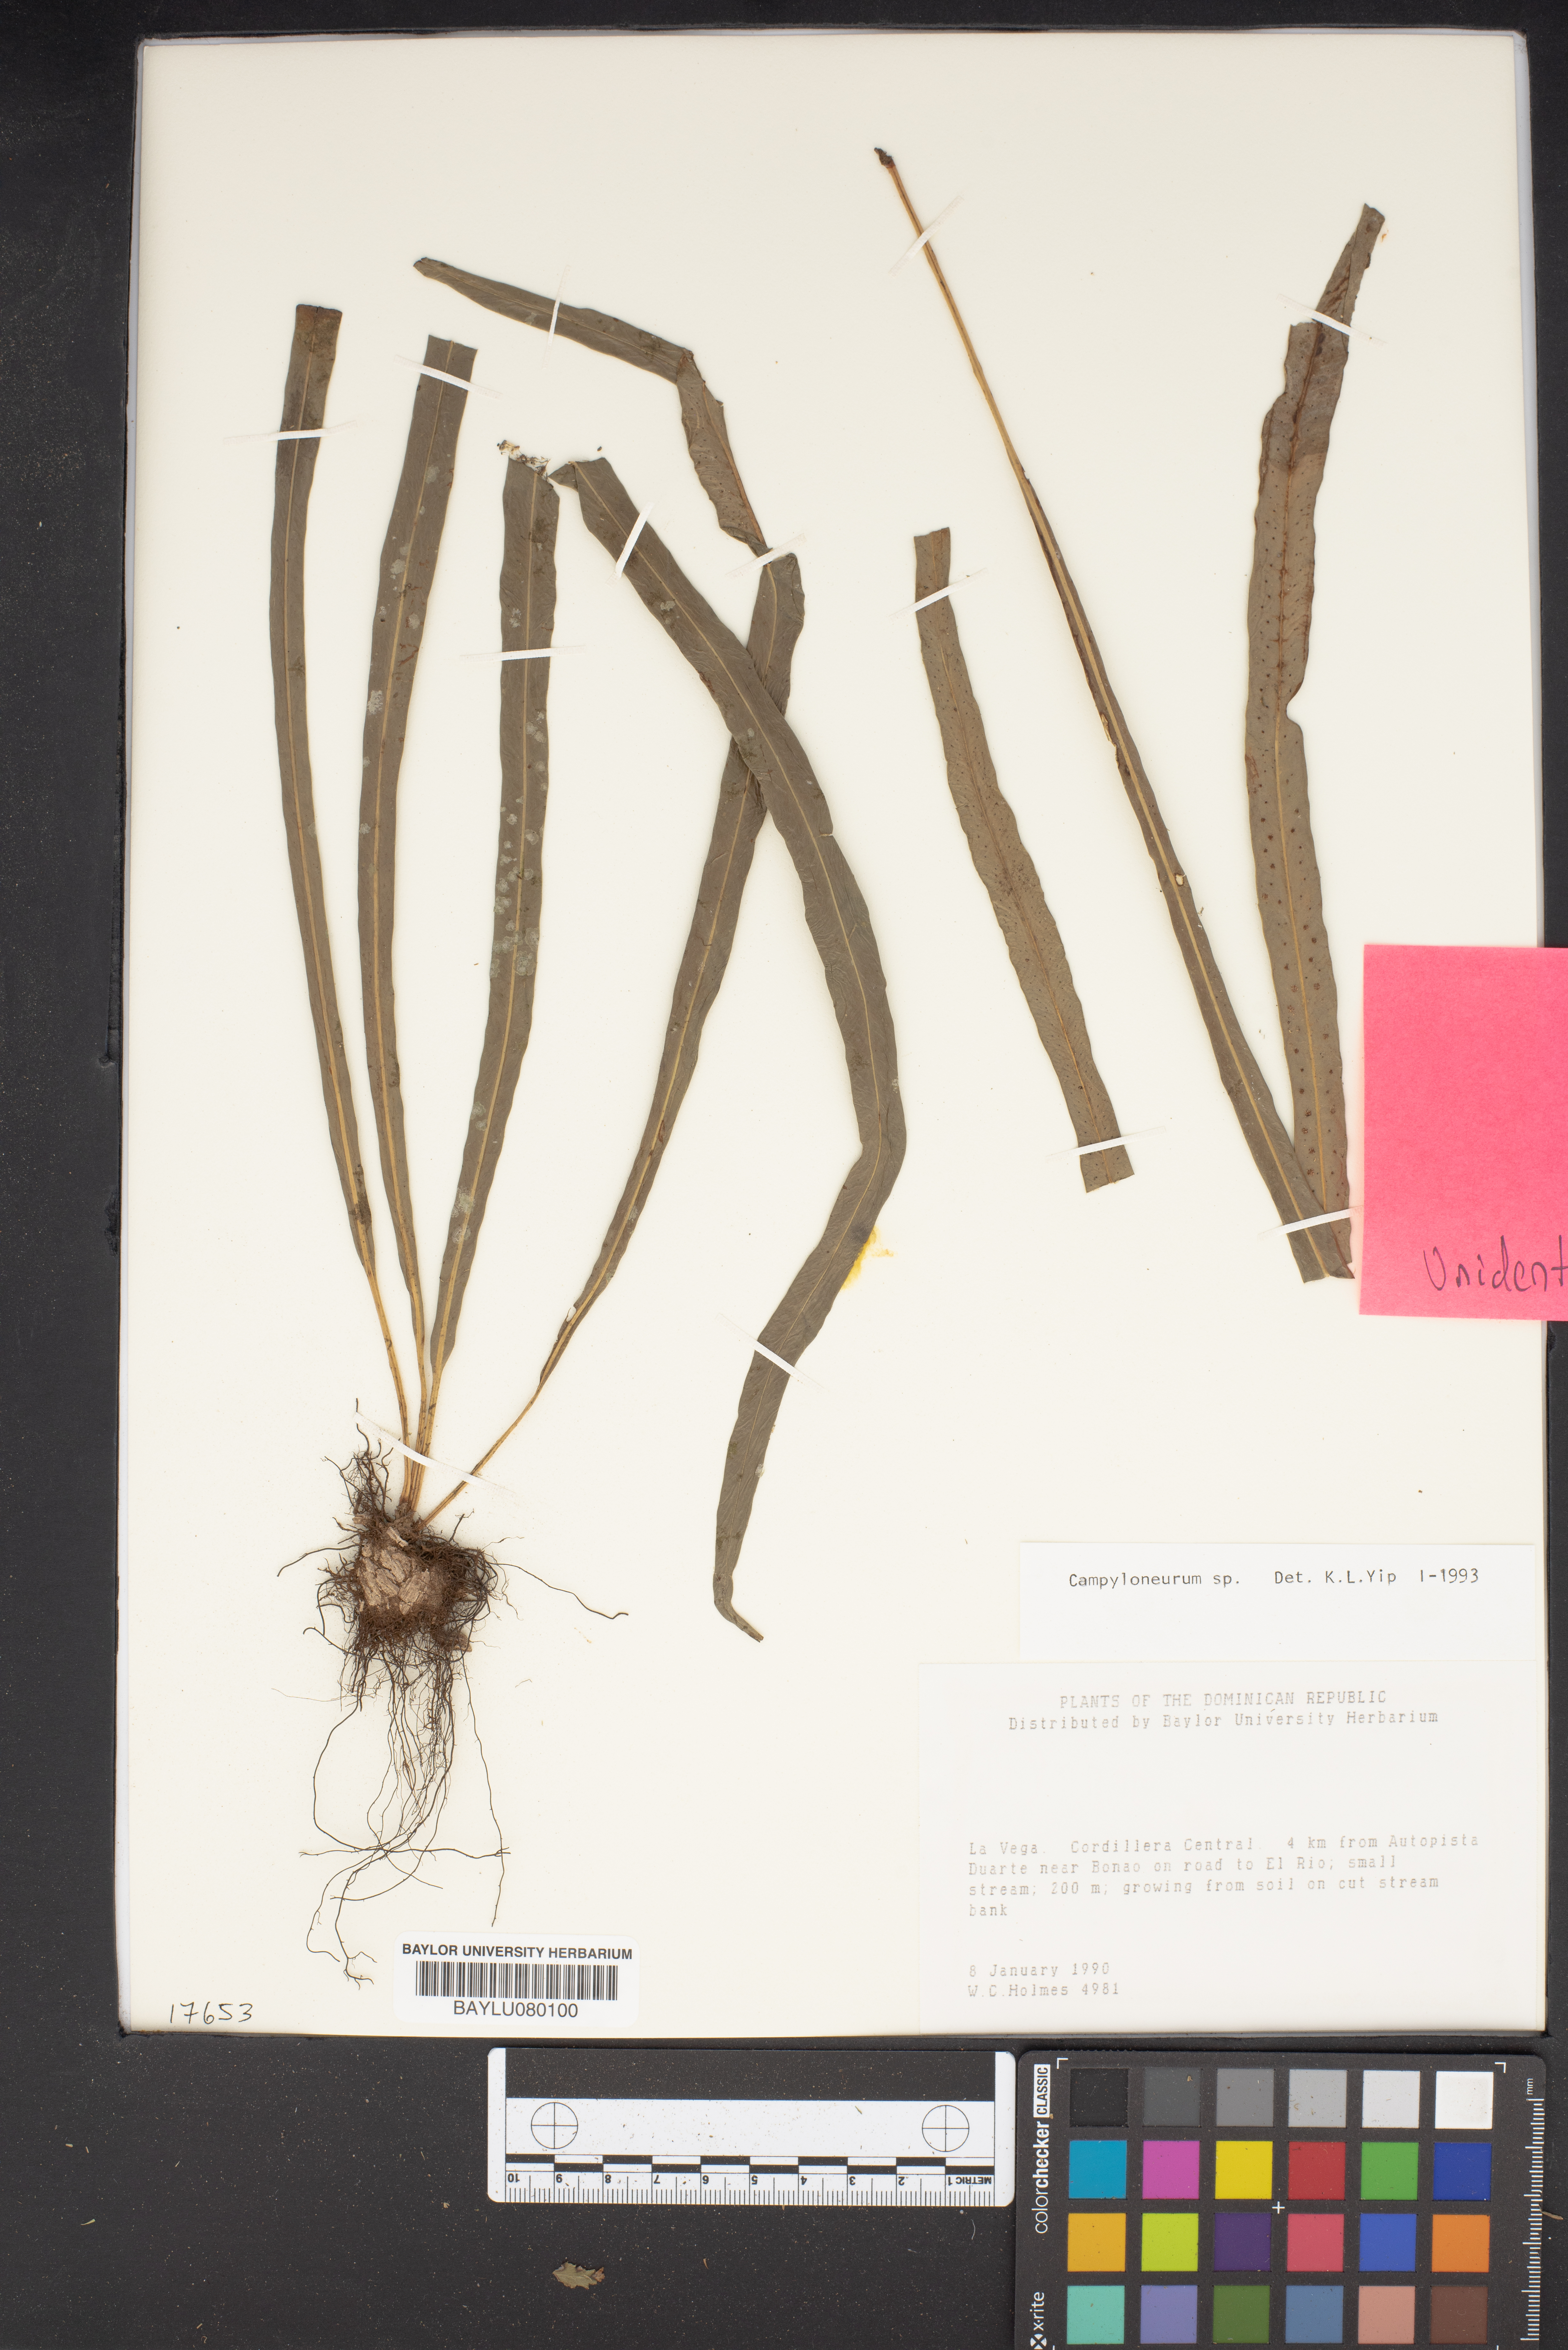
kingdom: Plantae
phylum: Tracheophyta
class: Polypodiopsida
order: Polypodiales
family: Polypodiaceae
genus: Campyloneurum
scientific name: Campyloneurum
